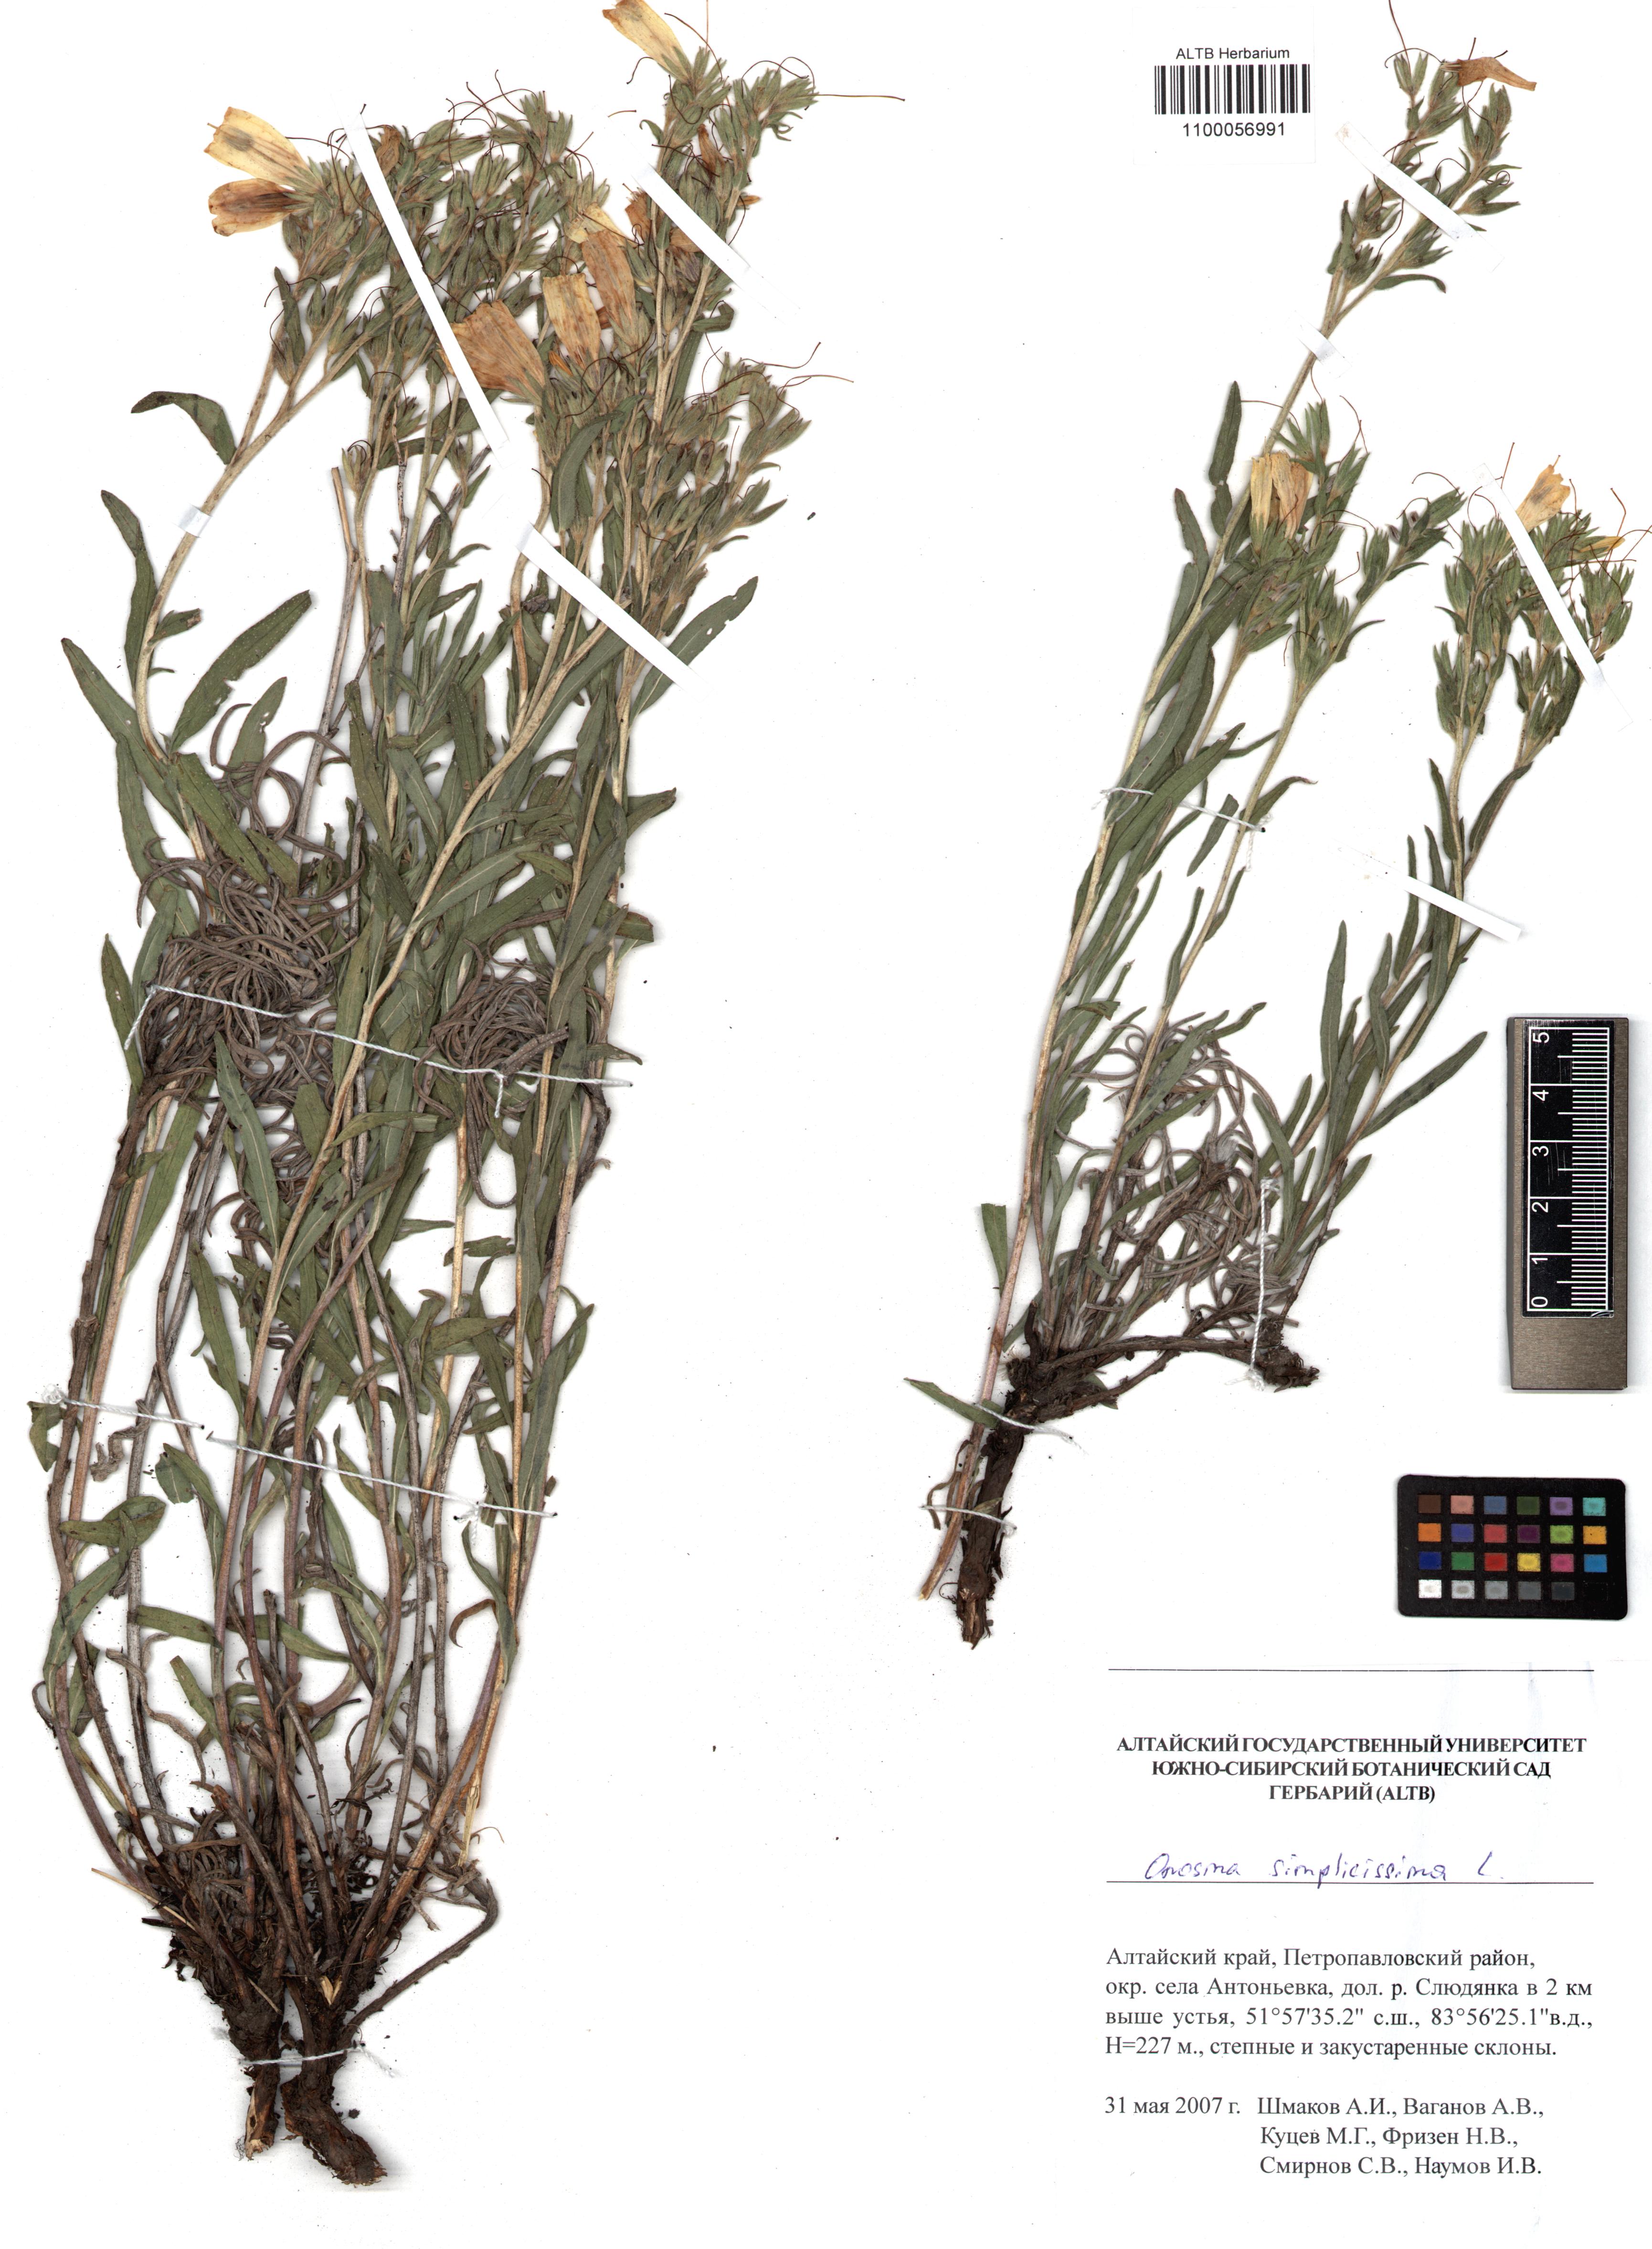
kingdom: Plantae
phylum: Tracheophyta
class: Magnoliopsida
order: Boraginales
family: Boraginaceae
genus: Onosma
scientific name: Onosma simplicissima
